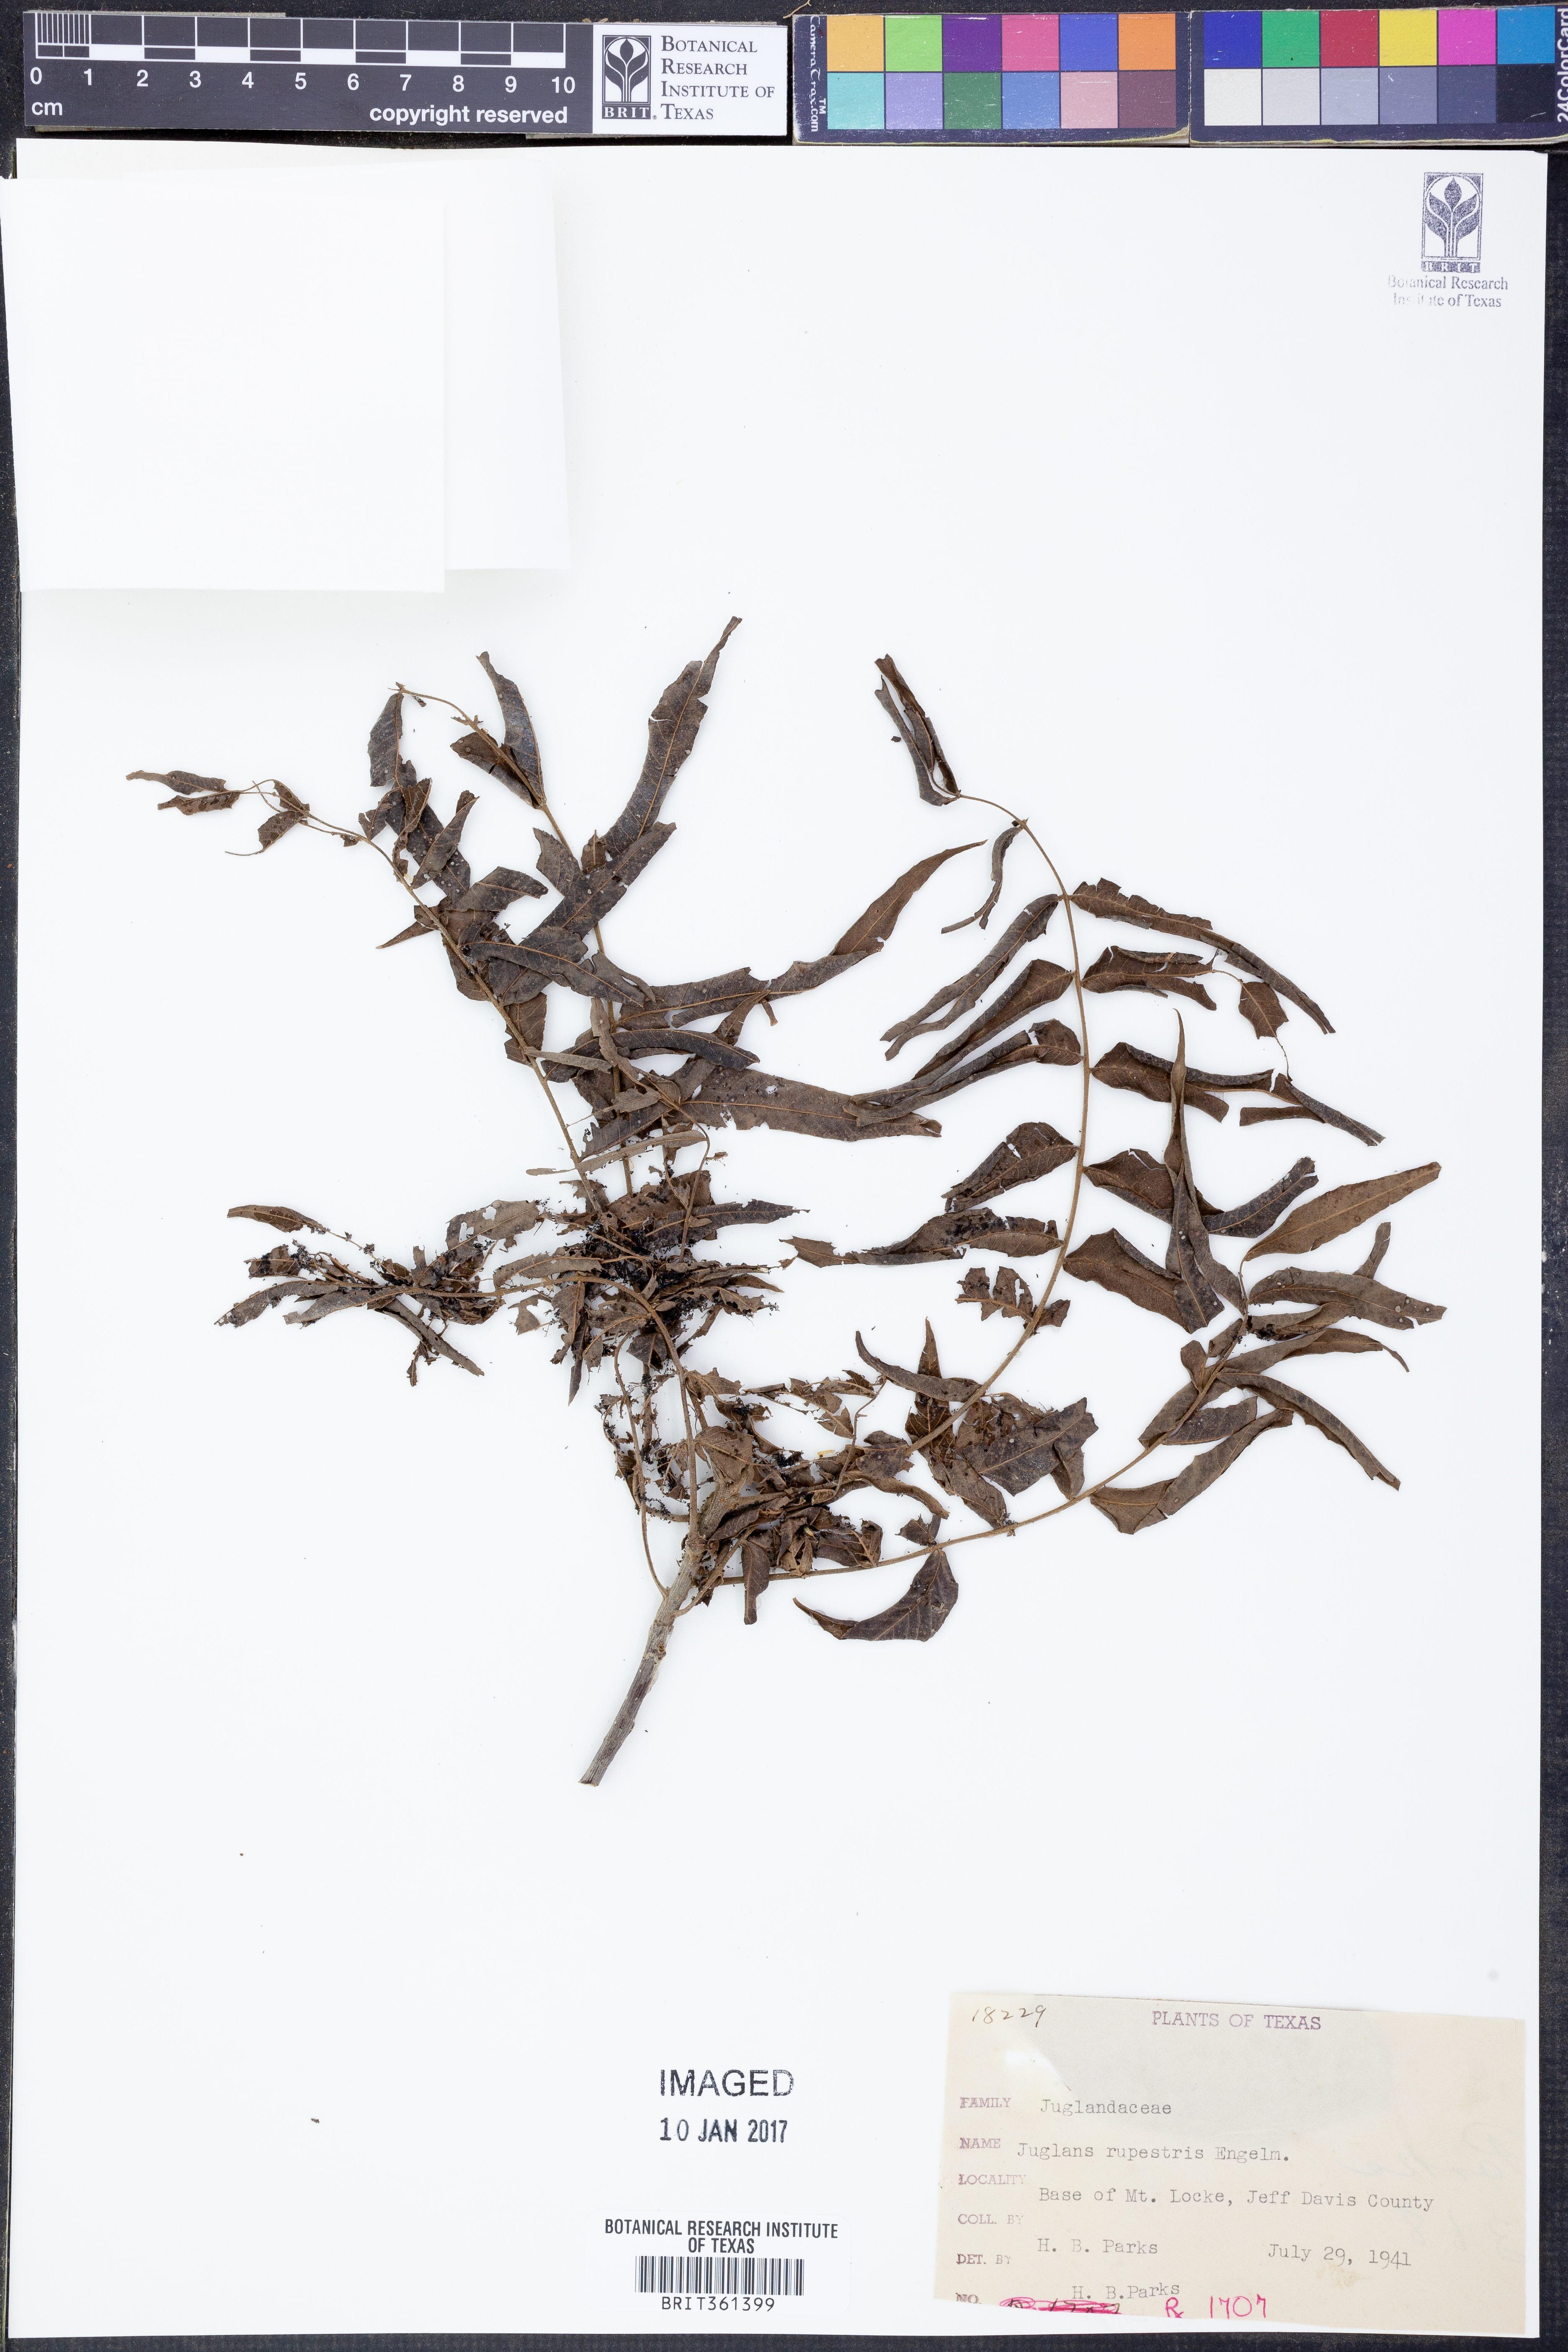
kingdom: Plantae
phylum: Tracheophyta
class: Magnoliopsida
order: Fagales
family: Juglandaceae
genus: Juglans
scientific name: Juglans microcarpa
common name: Texas walnut
